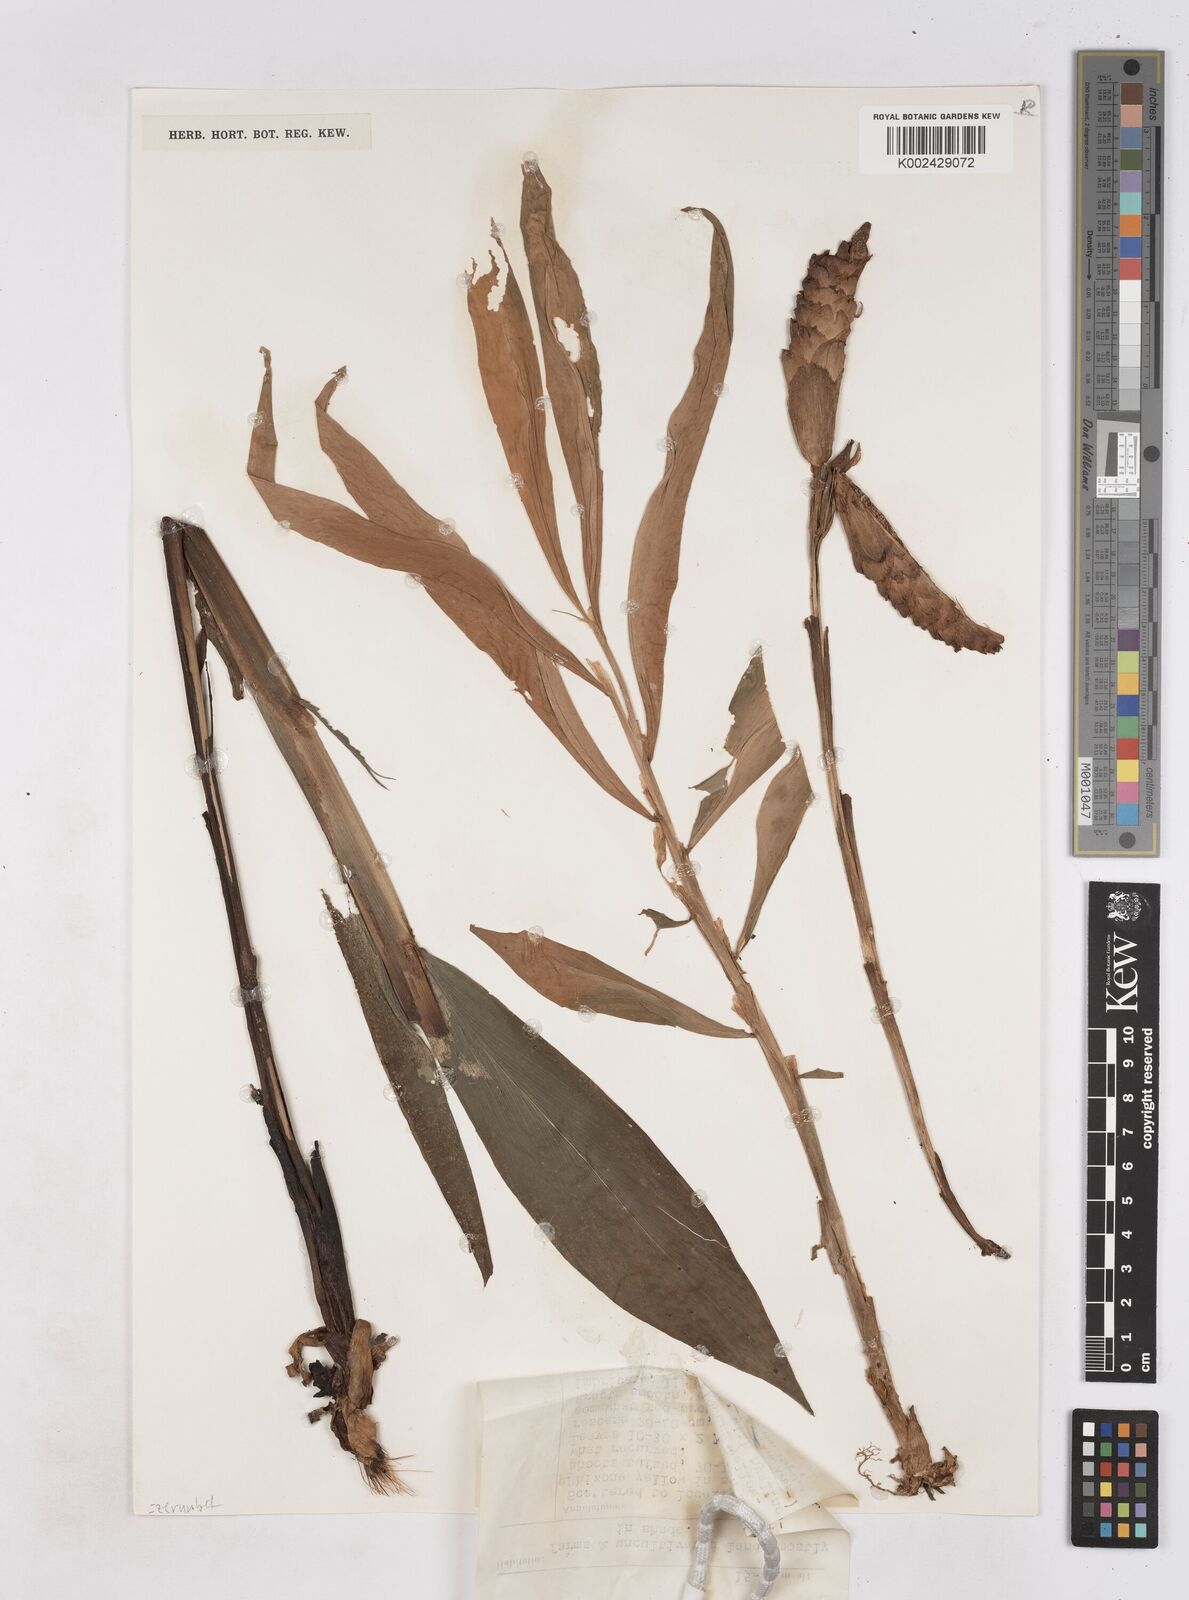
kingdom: Plantae
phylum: Tracheophyta
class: Liliopsida
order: Zingiberales
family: Zingiberaceae
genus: Zingiber
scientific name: Zingiber zerumbet
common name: Bitter ginger
